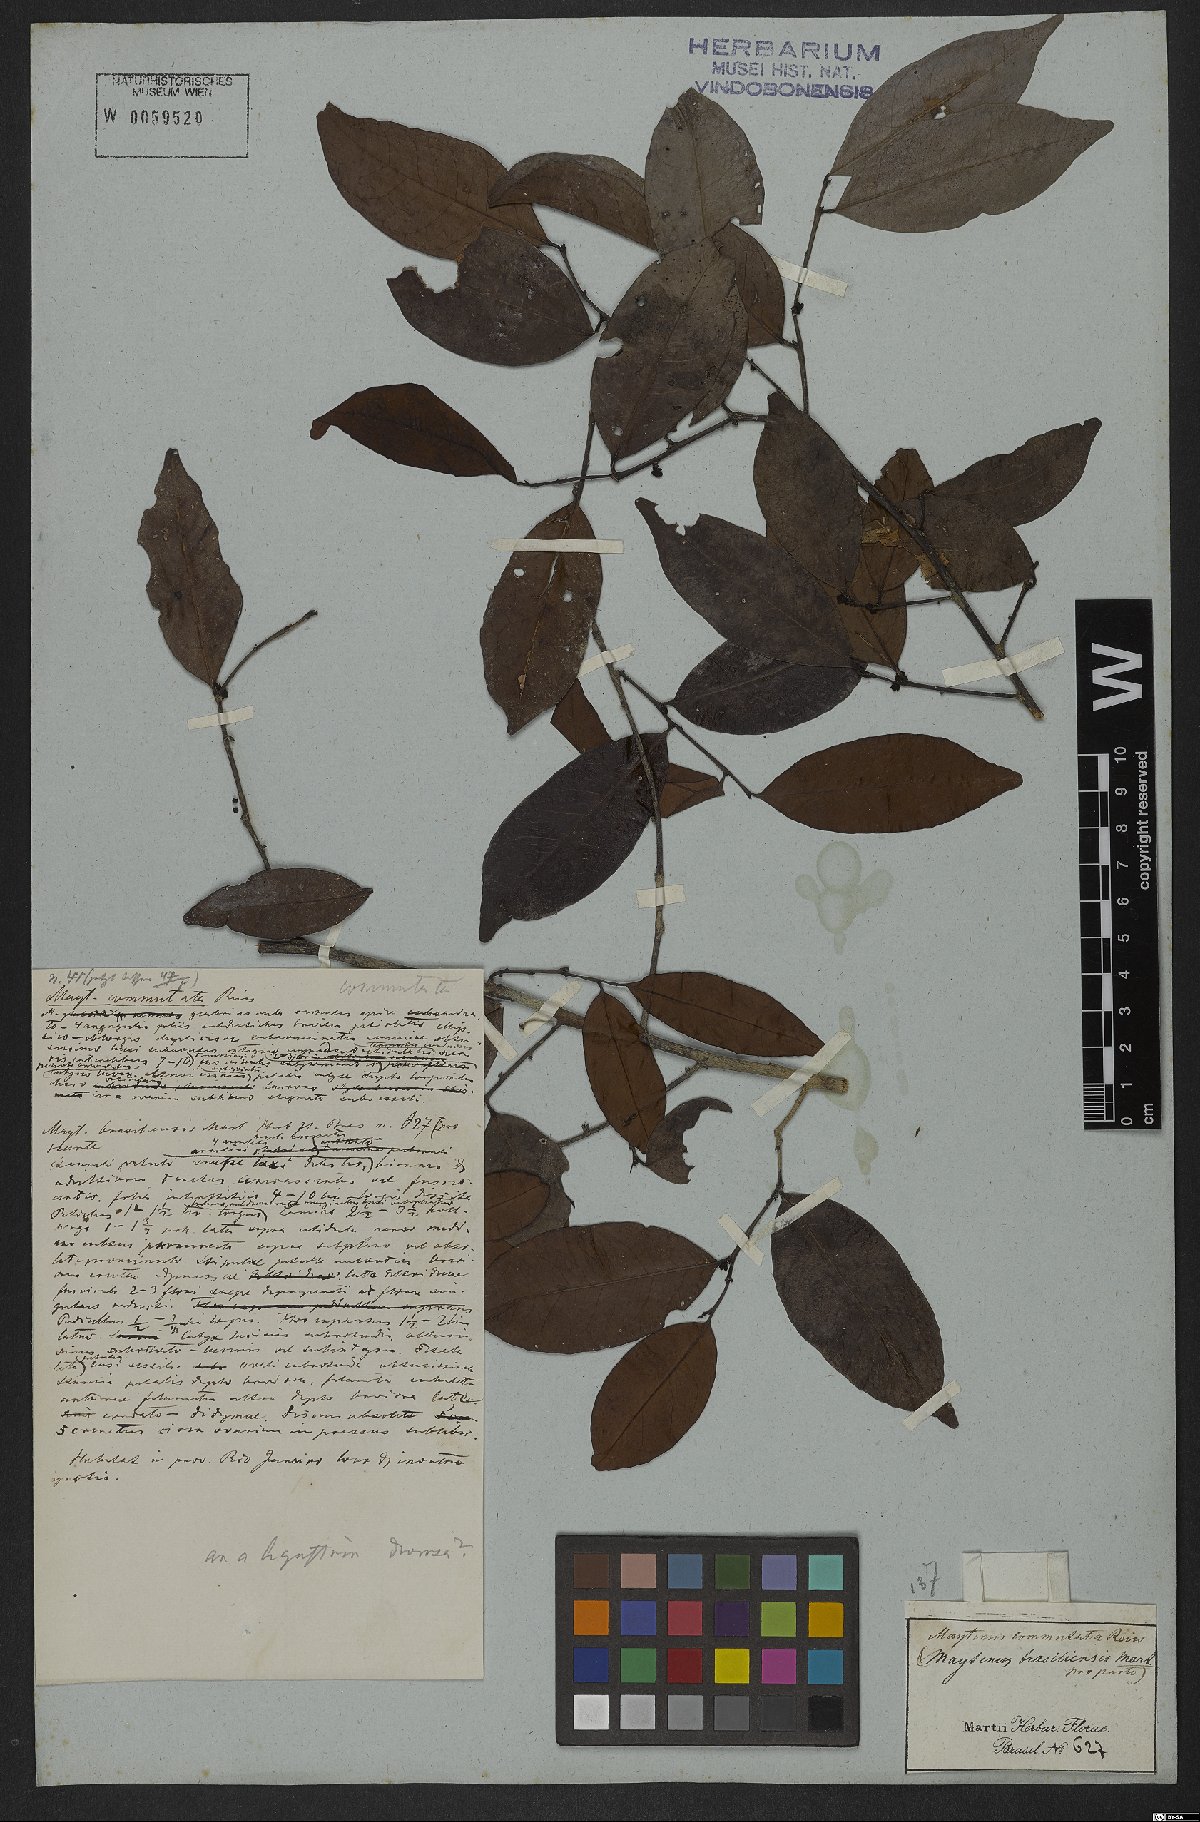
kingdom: Plantae
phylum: Tracheophyta
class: Magnoliopsida
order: Celastrales
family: Celastraceae
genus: Monteverdia
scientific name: Monteverdia brasiliensis
